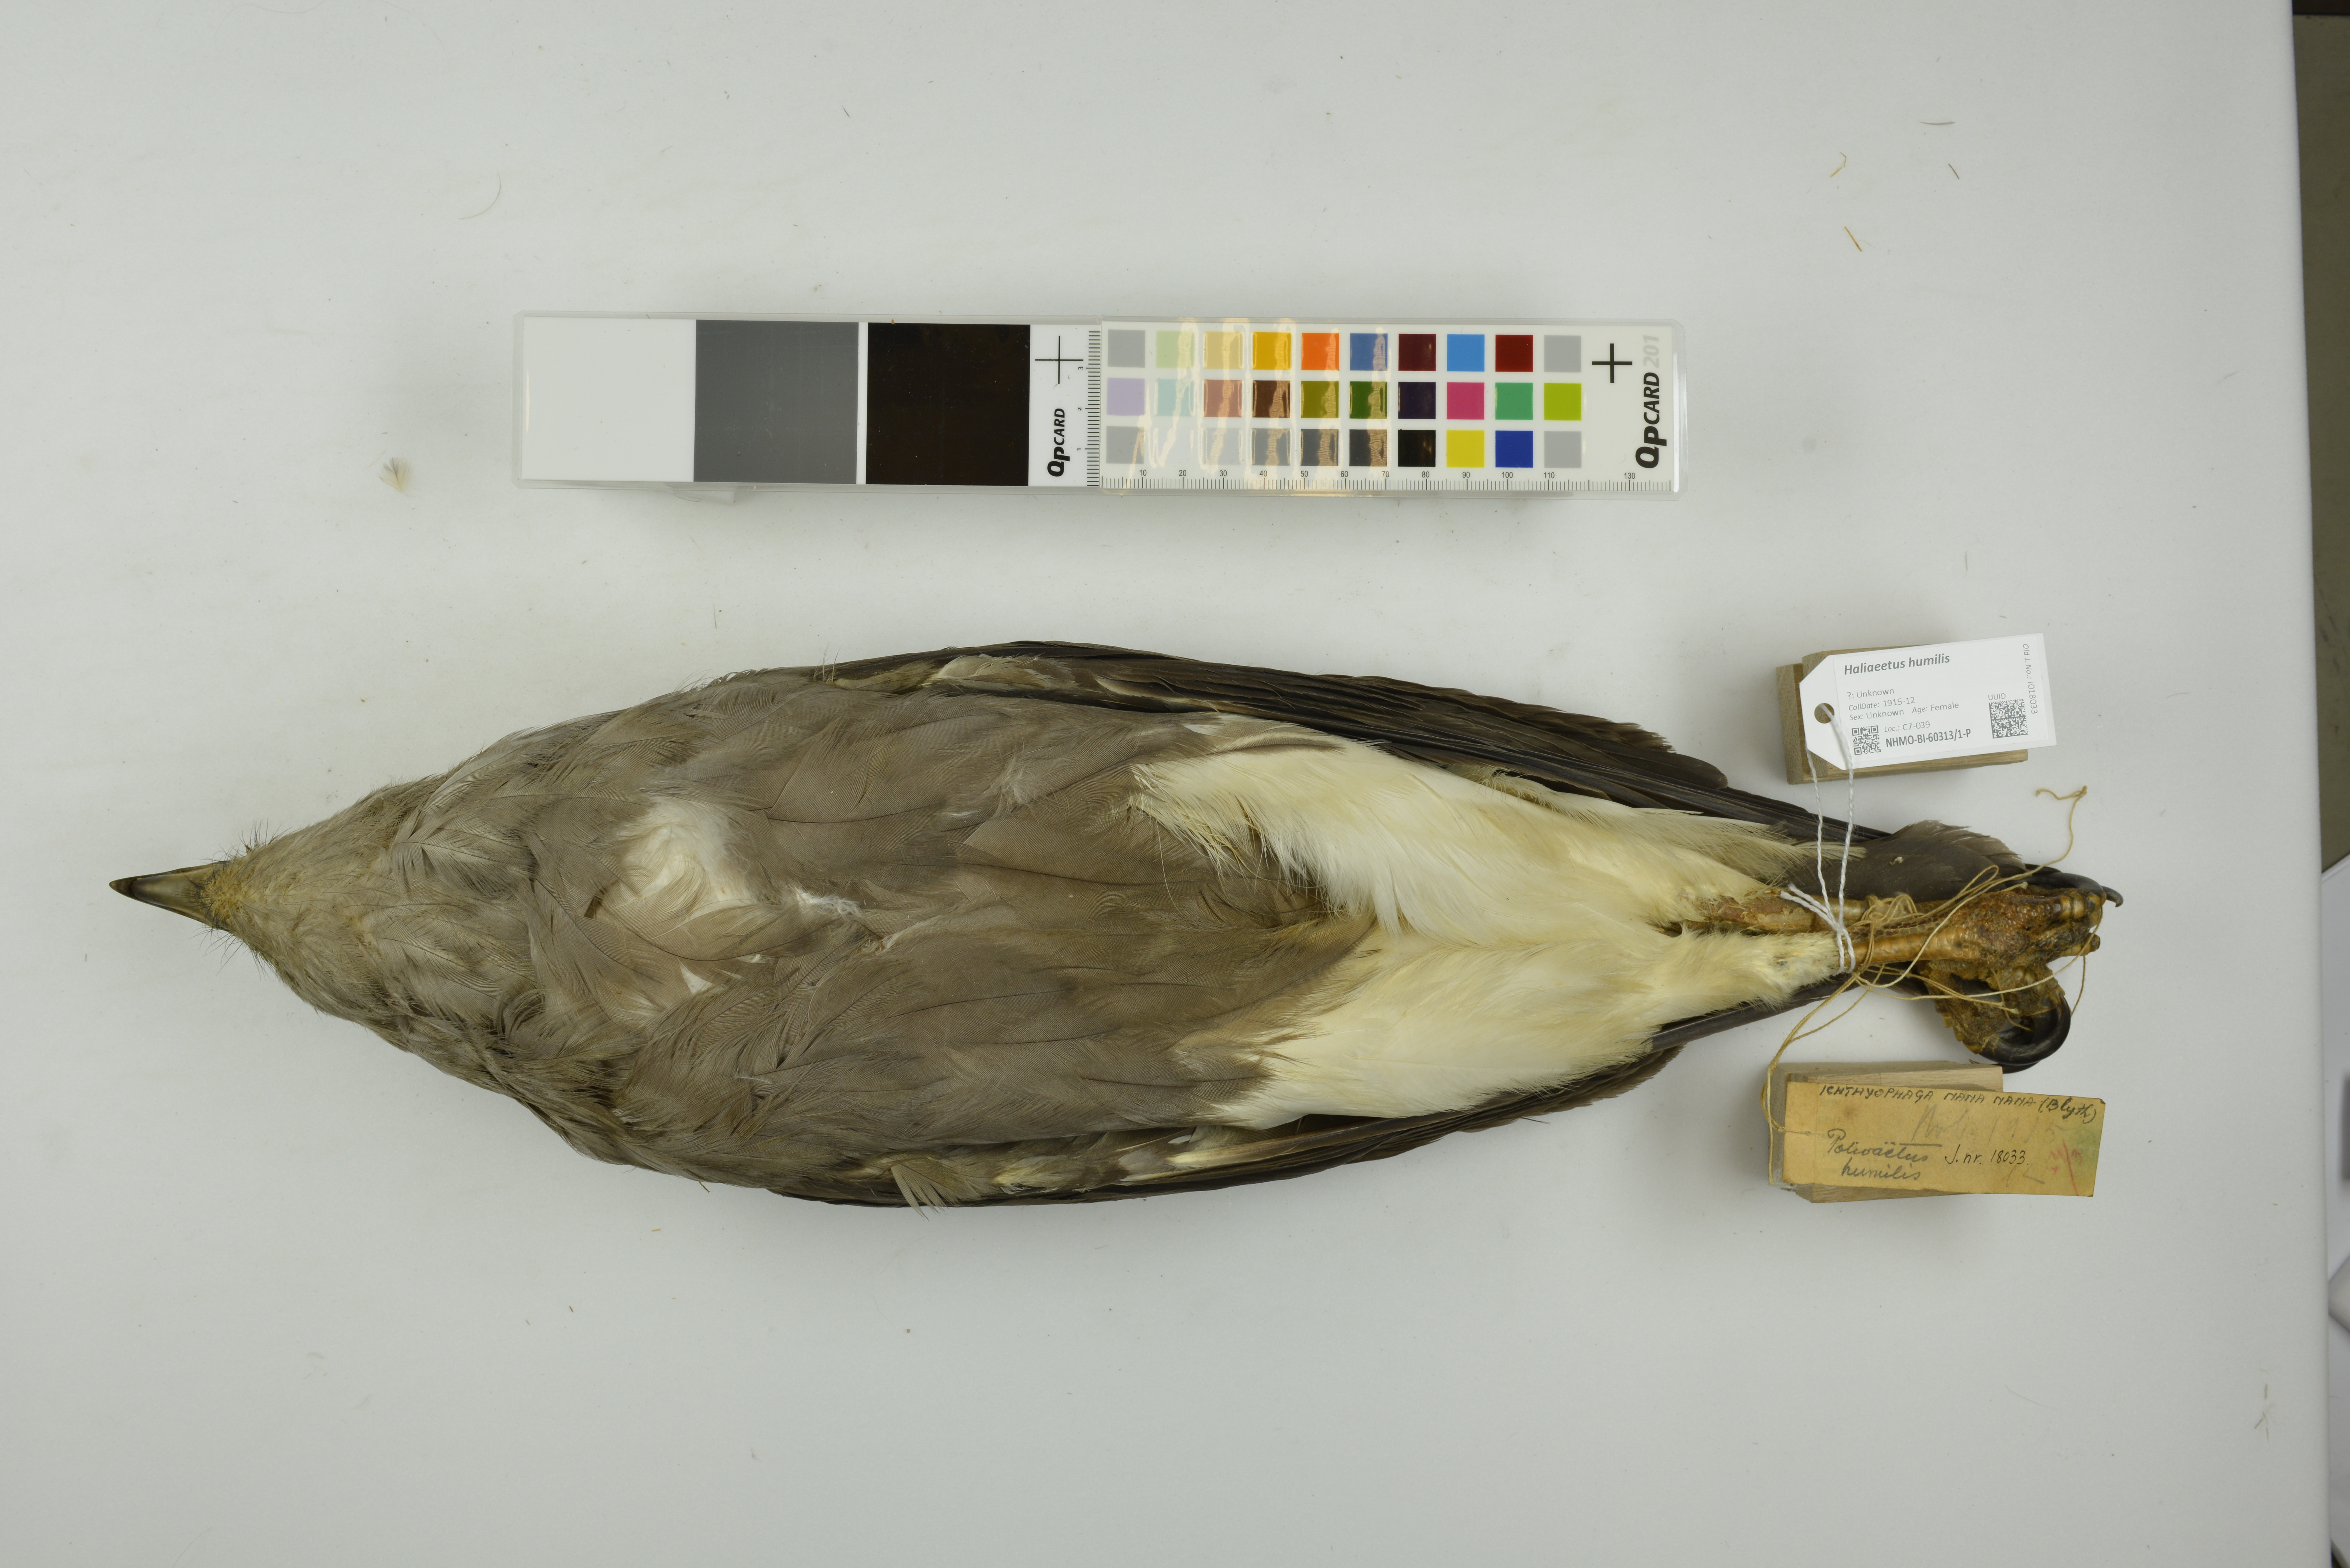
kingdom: Animalia
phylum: Chordata
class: Aves
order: Accipitriformes
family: Accipitridae
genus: Haliaeetus
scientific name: Haliaeetus humilis
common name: Lesser fish-eagle
